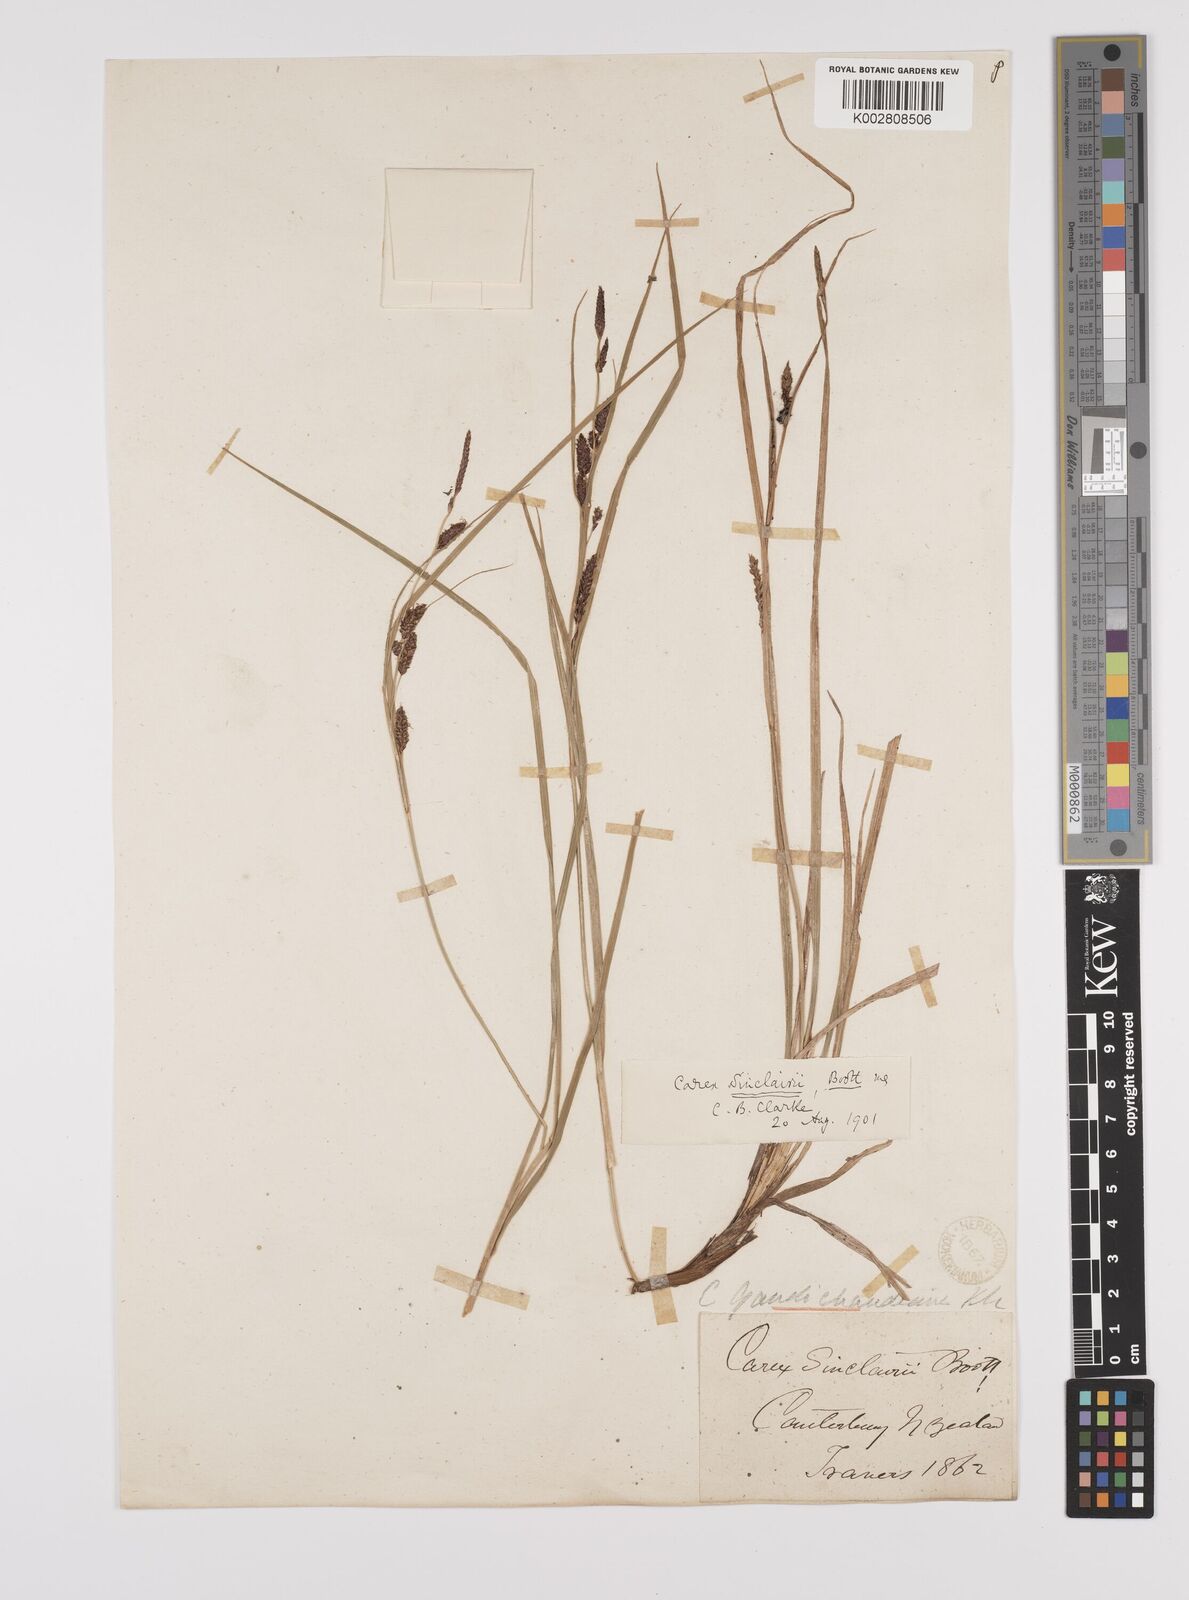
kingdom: Plantae
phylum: Tracheophyta
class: Liliopsida
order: Poales
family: Cyperaceae
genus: Carex
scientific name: Carex sinclairii
